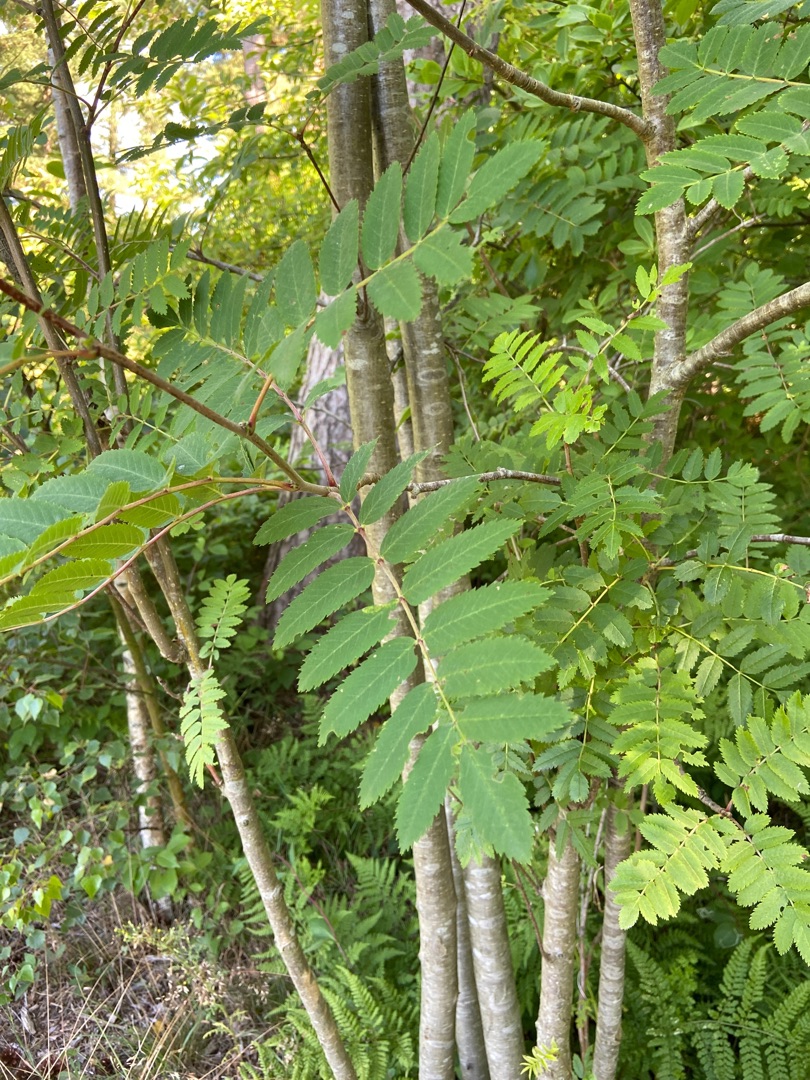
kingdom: Plantae
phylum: Tracheophyta
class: Magnoliopsida
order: Rosales
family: Rosaceae
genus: Sorbus
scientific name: Sorbus aucuparia
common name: Almindelig røn
